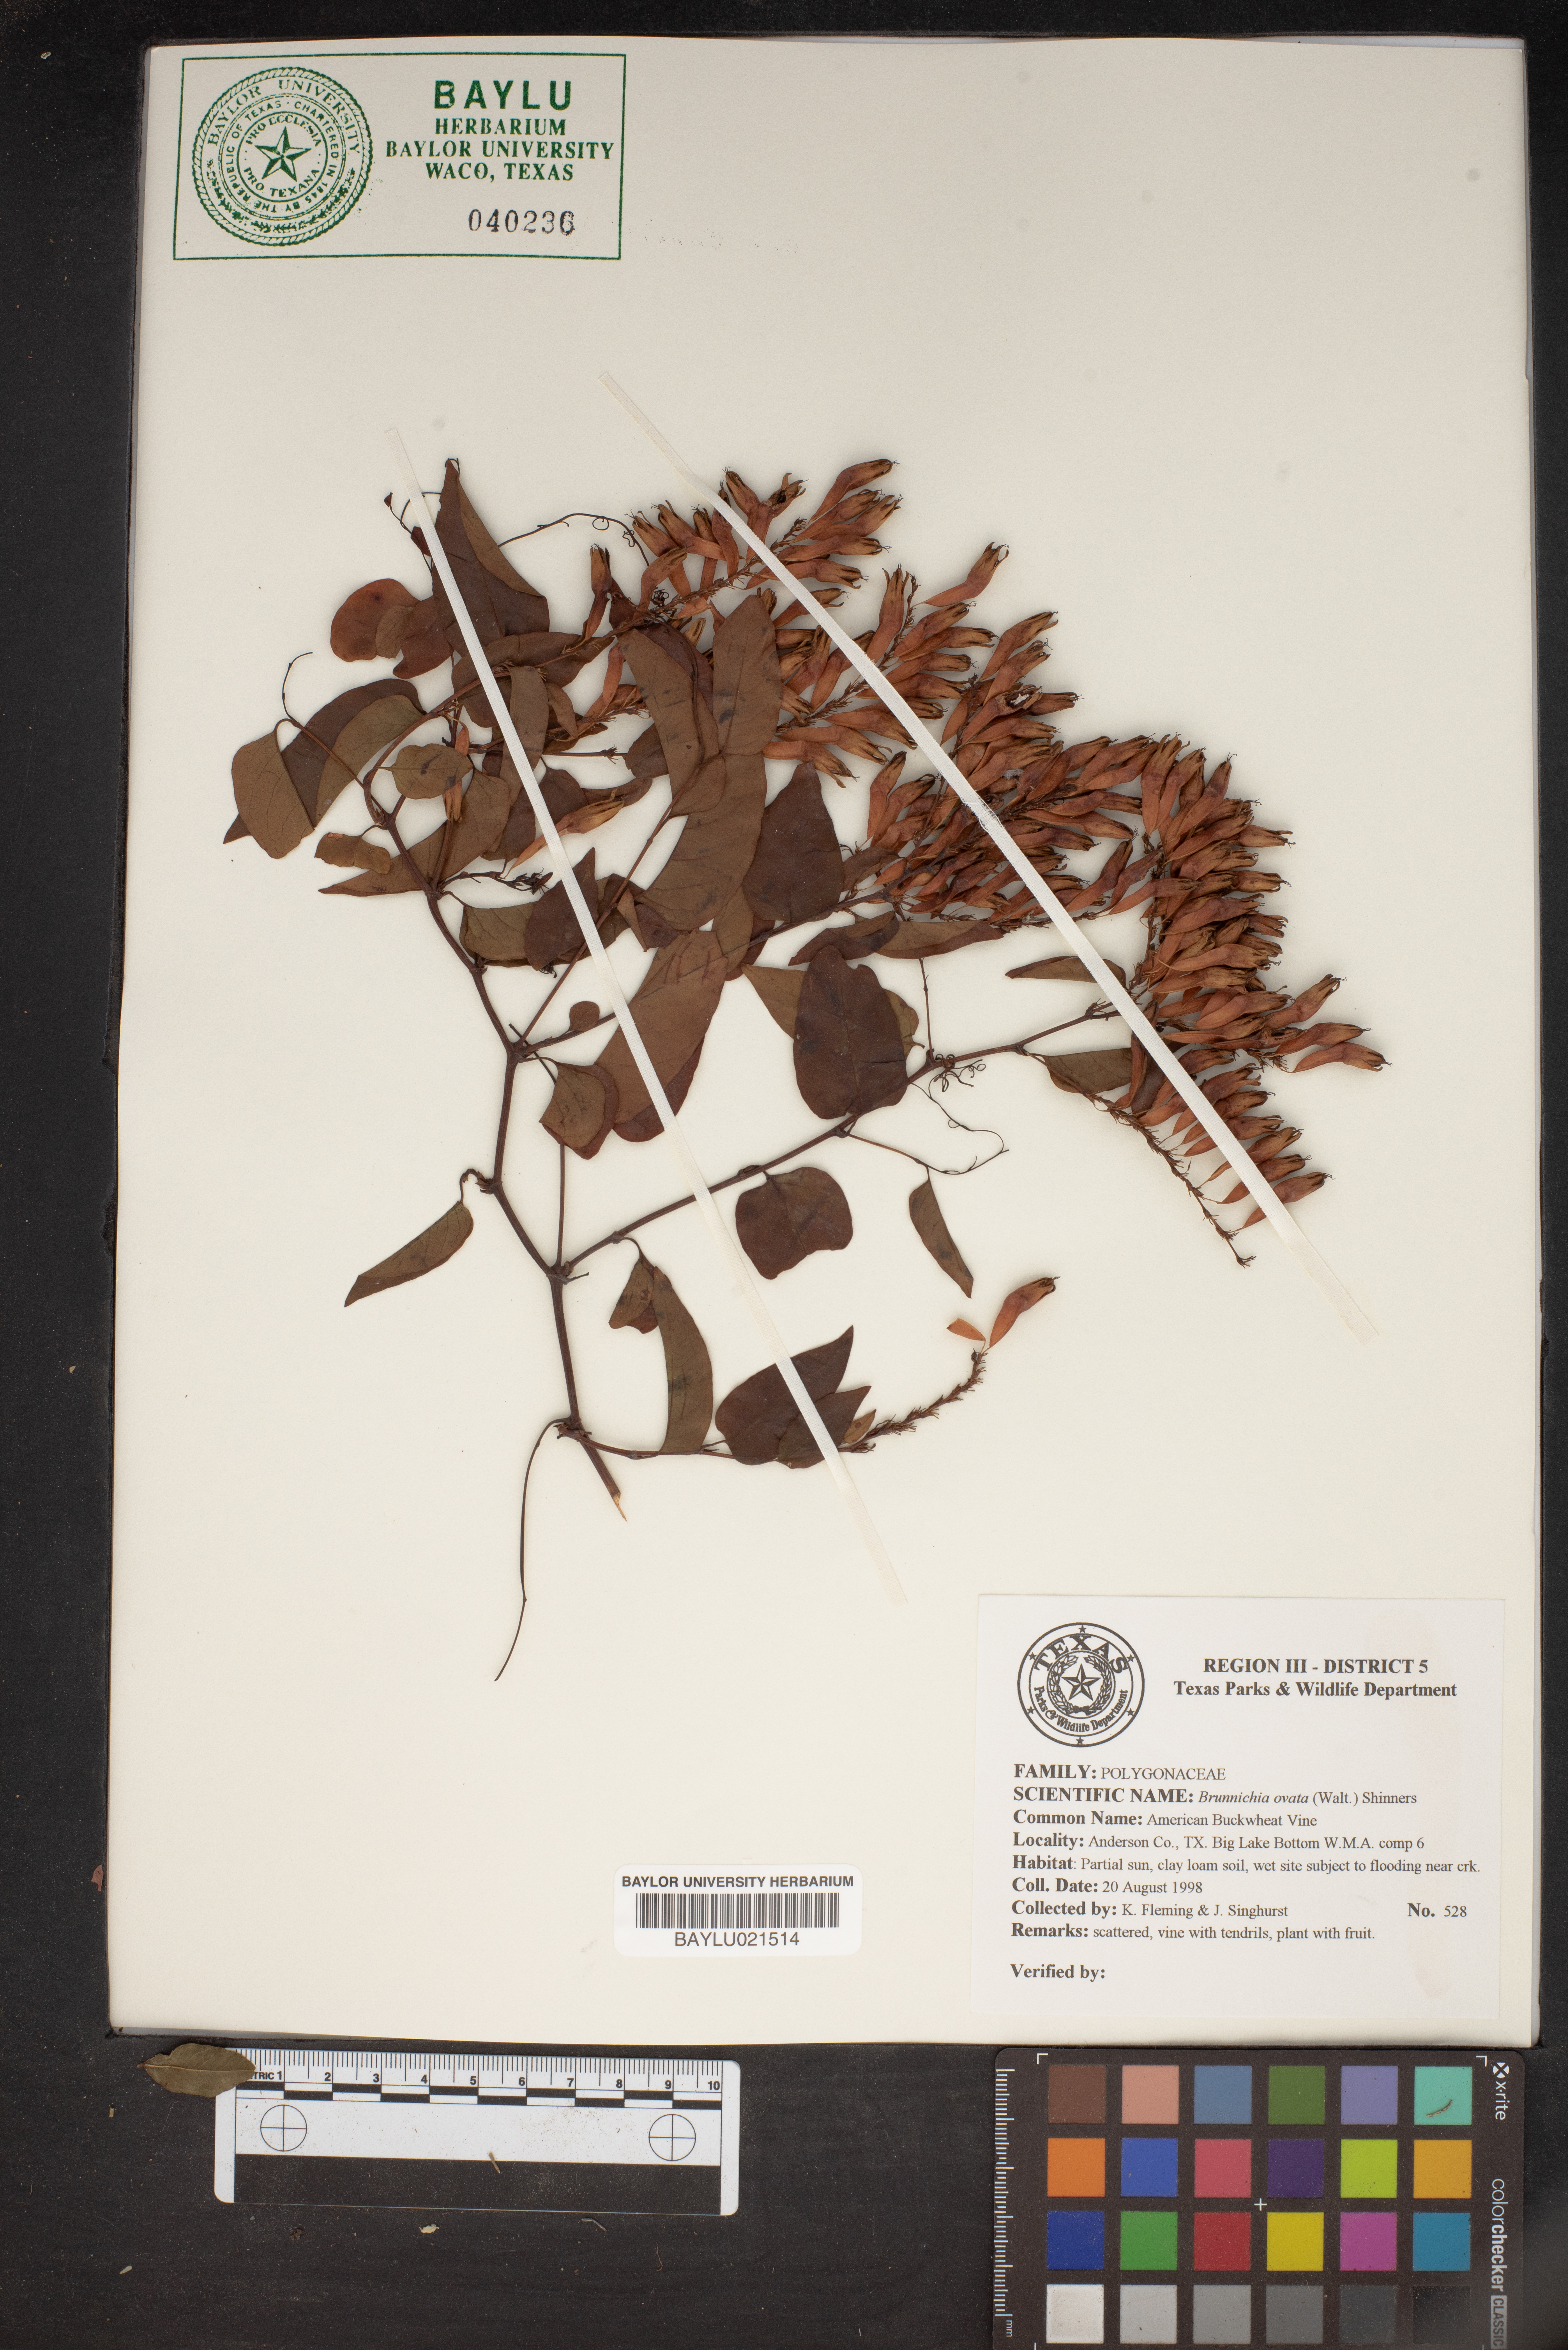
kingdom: Plantae
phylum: Tracheophyta
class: Magnoliopsida
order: Caryophyllales
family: Polygonaceae
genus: Brunnichia
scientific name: Brunnichia ovata
